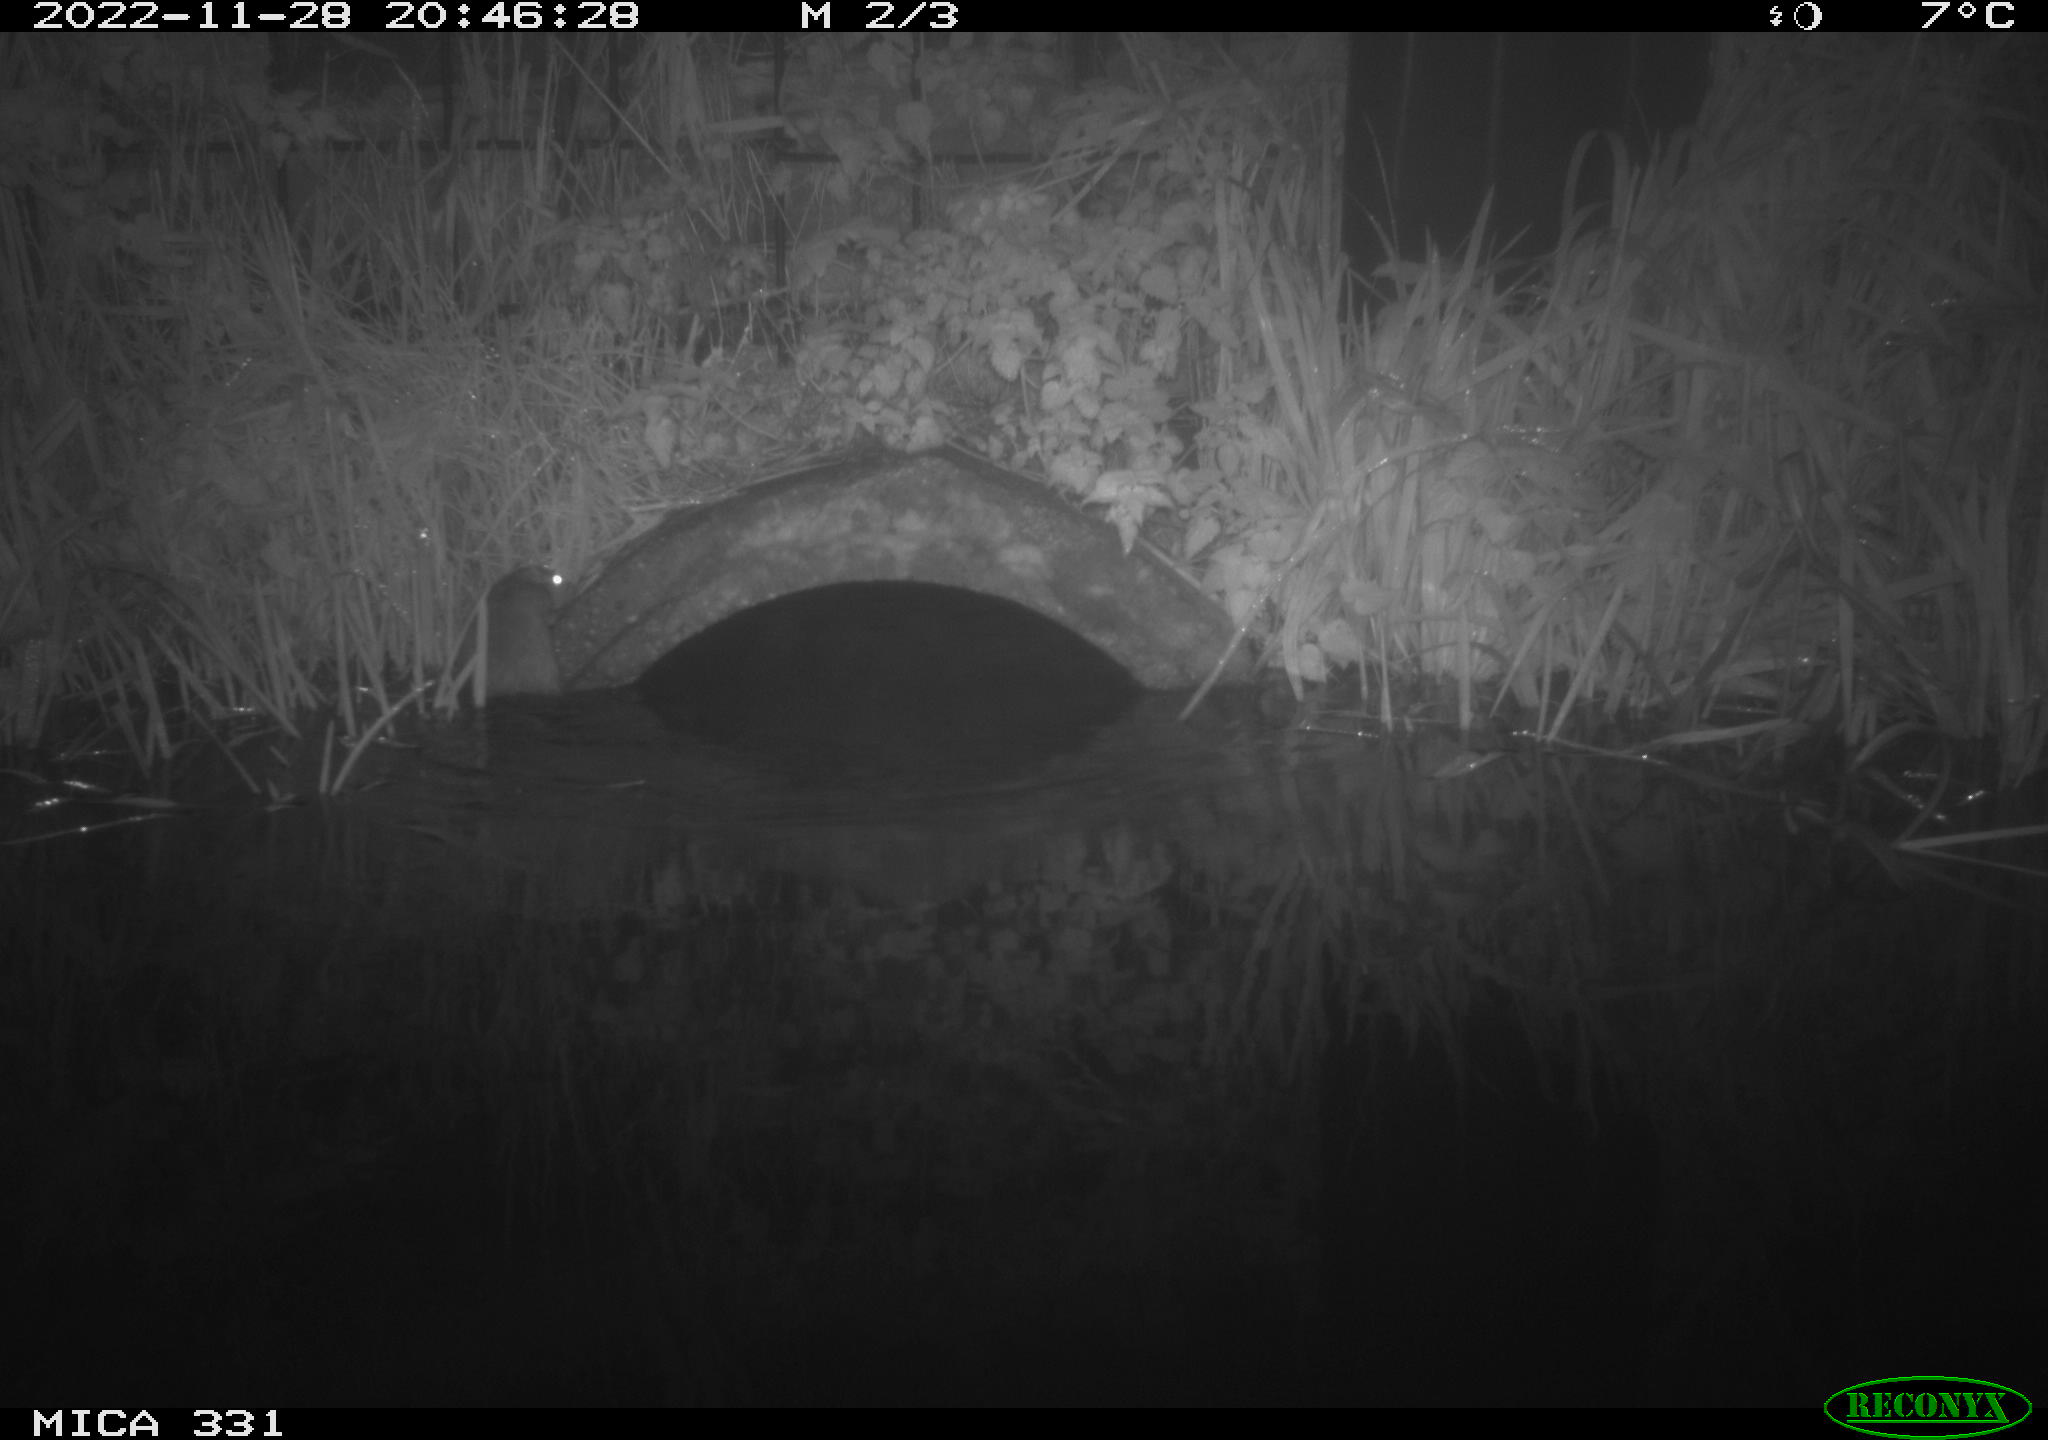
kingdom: Animalia
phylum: Chordata
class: Mammalia
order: Rodentia
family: Muridae
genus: Rattus
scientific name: Rattus norvegicus
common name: Brown rat
